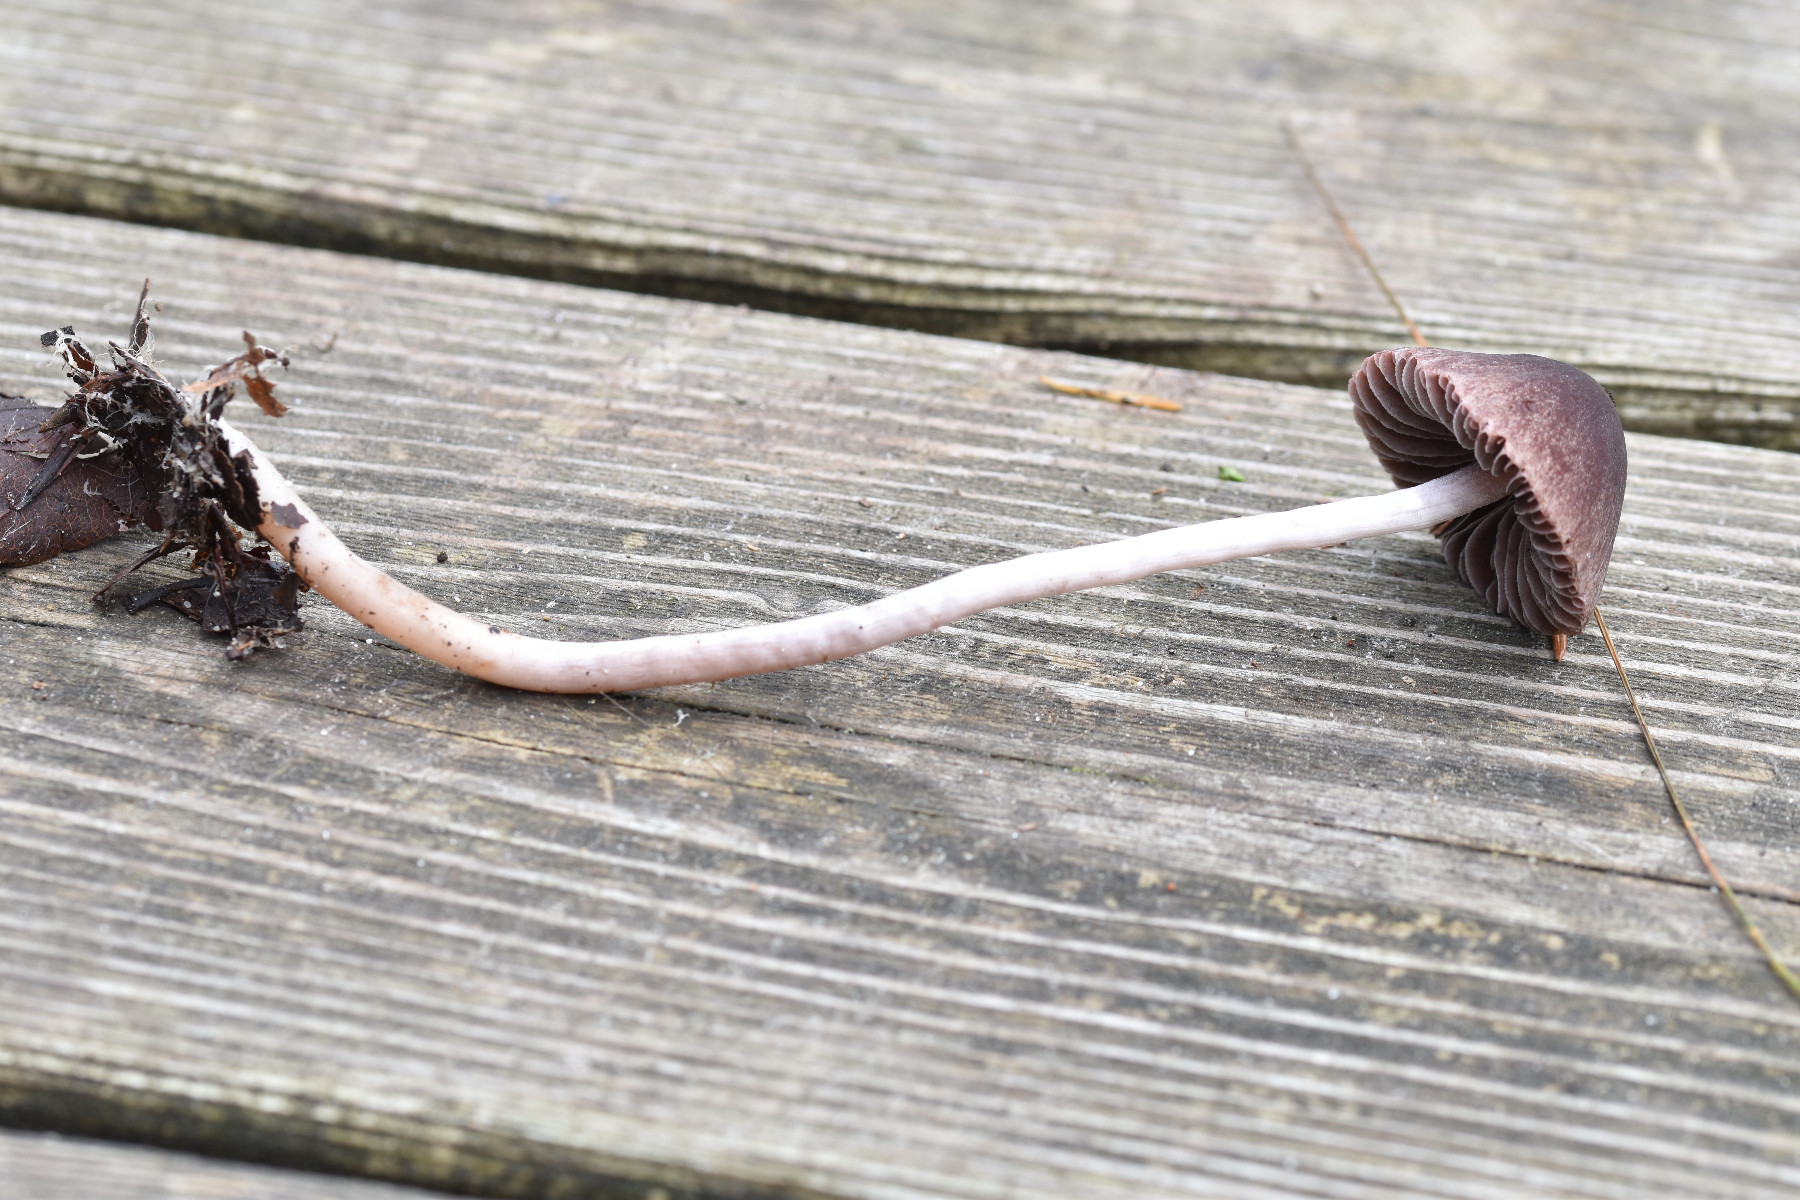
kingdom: Fungi
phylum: Basidiomycota
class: Agaricomycetes
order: Agaricales
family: Psathyrellaceae
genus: Psathyrella
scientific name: Psathyrella bipellis
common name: vinrød mørkhat
